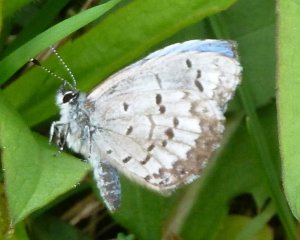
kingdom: Animalia
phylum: Arthropoda
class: Insecta
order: Lepidoptera
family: Lycaenidae
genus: Celastrina
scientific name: Celastrina lucia
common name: Northern Spring Azure
